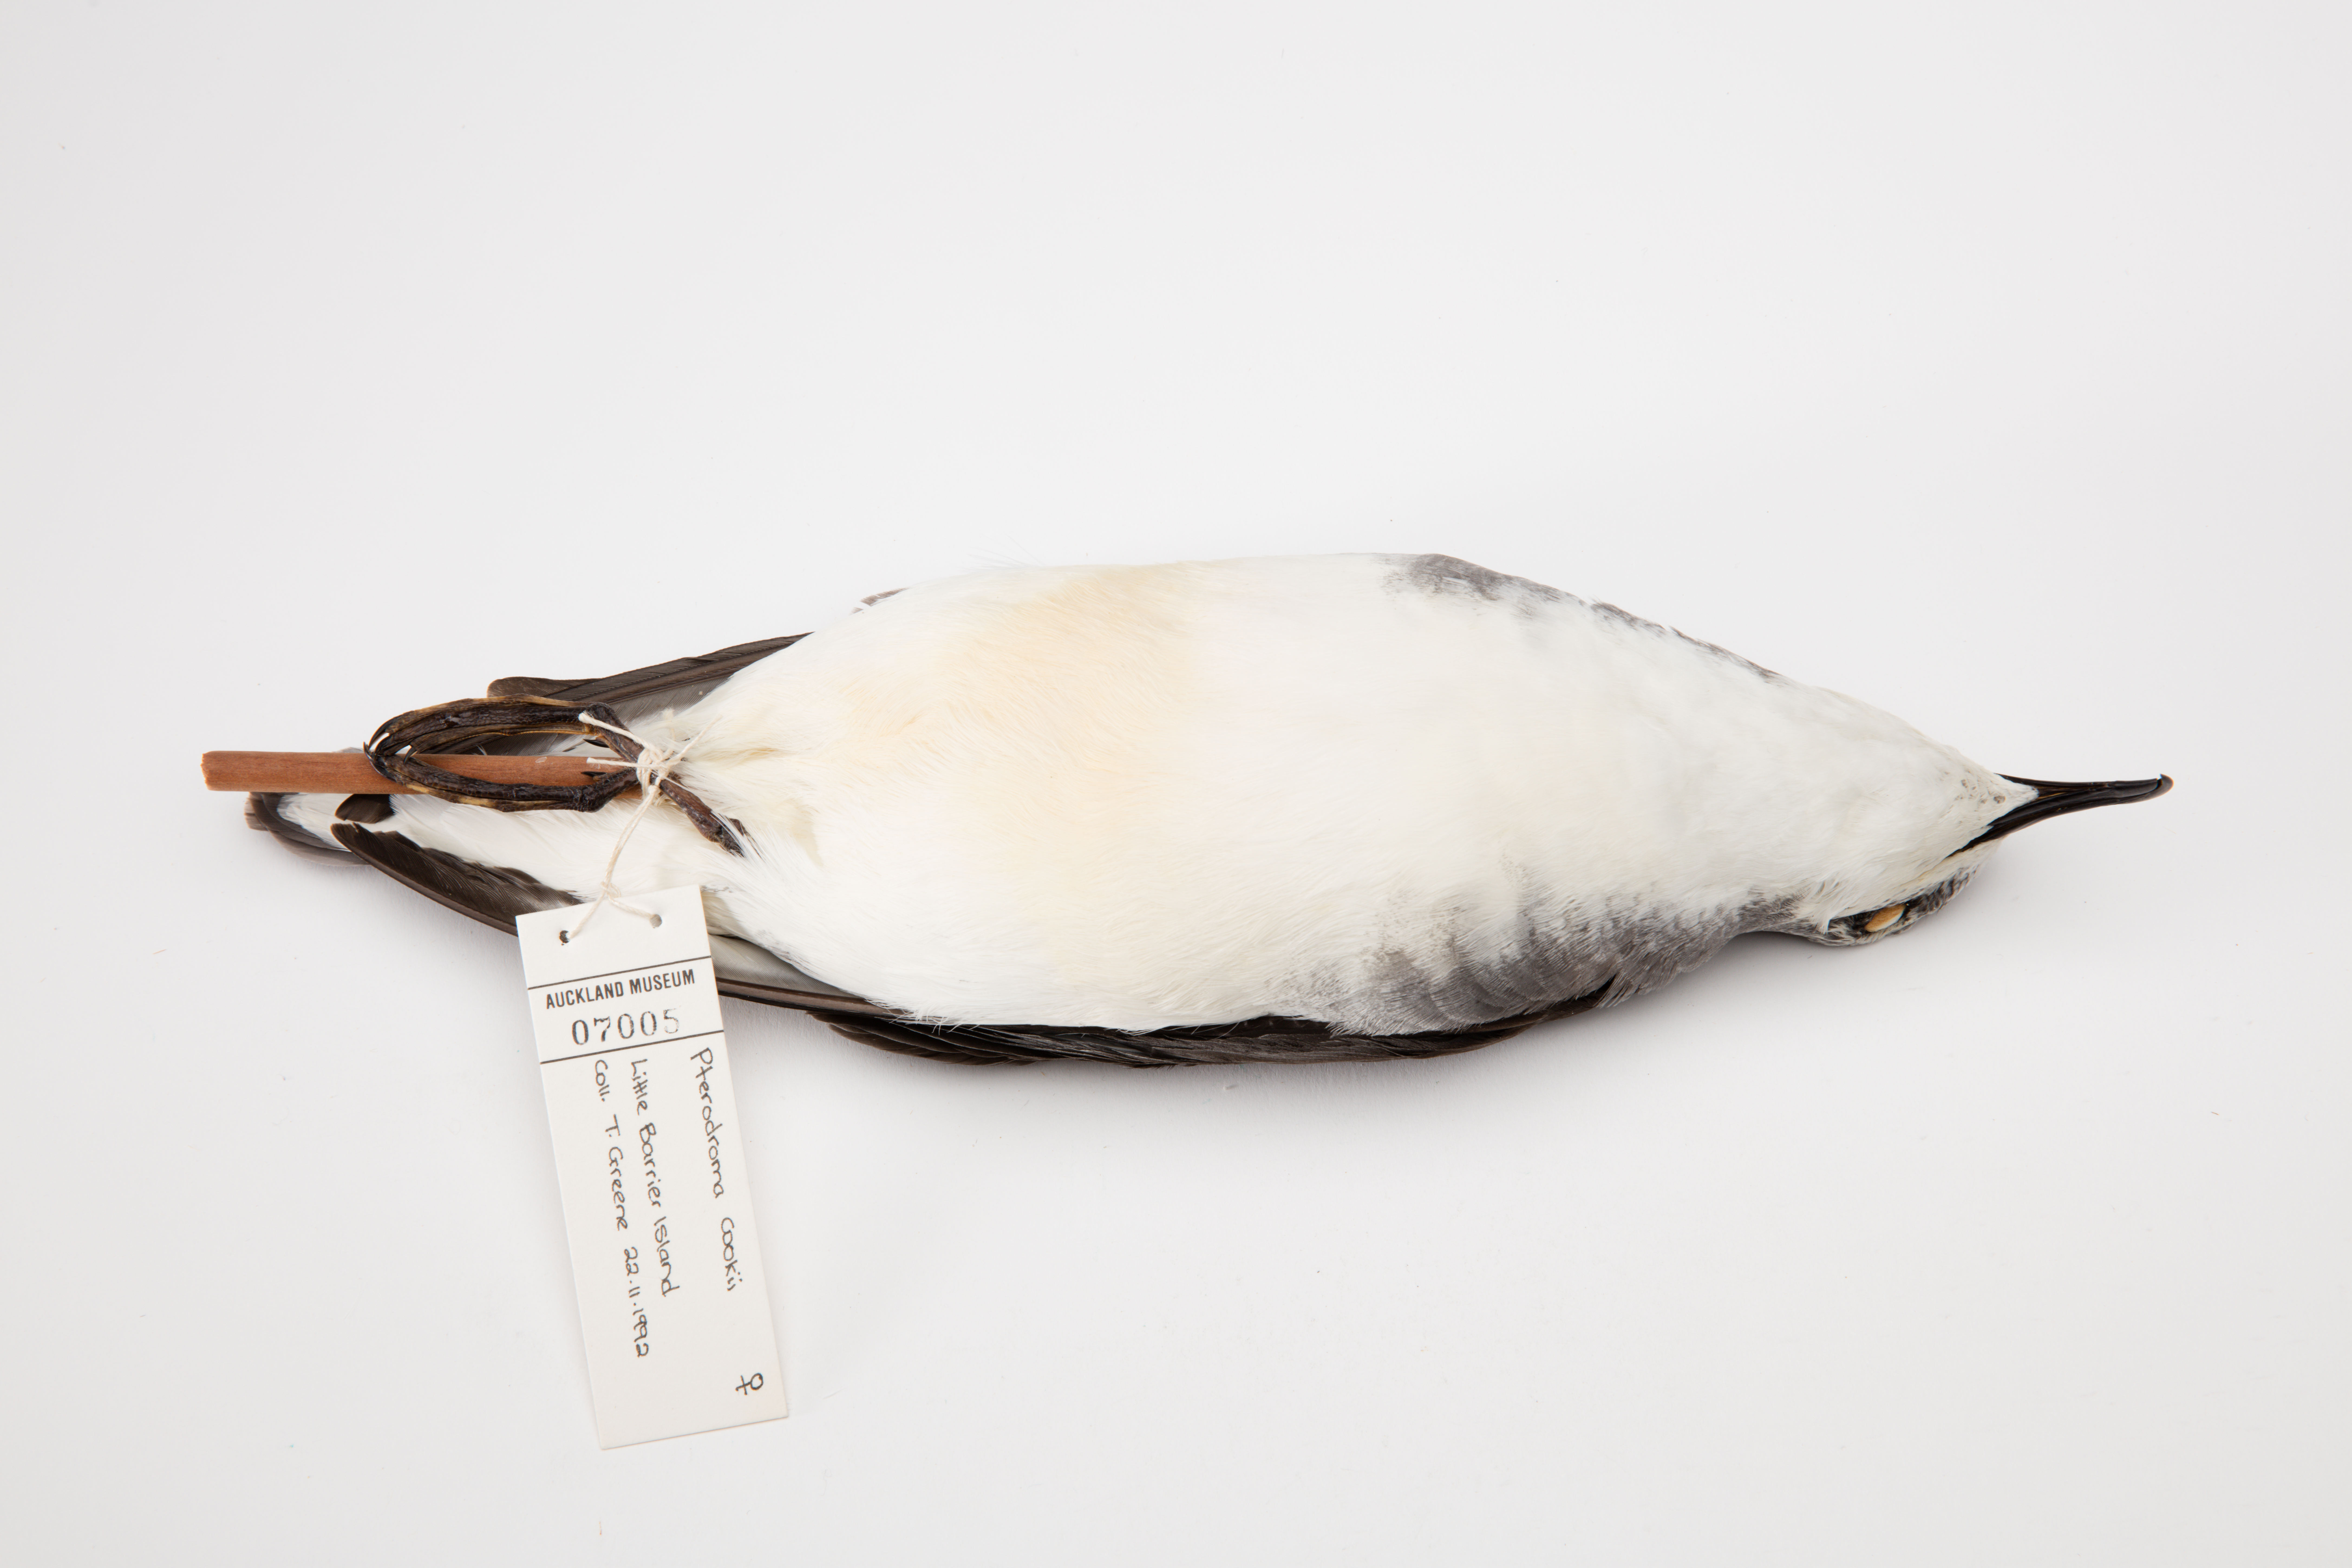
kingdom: Animalia
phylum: Chordata
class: Aves
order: Procellariiformes
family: Procellariidae
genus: Pterodroma
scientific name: Pterodroma cookii
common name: Cook's petrel
